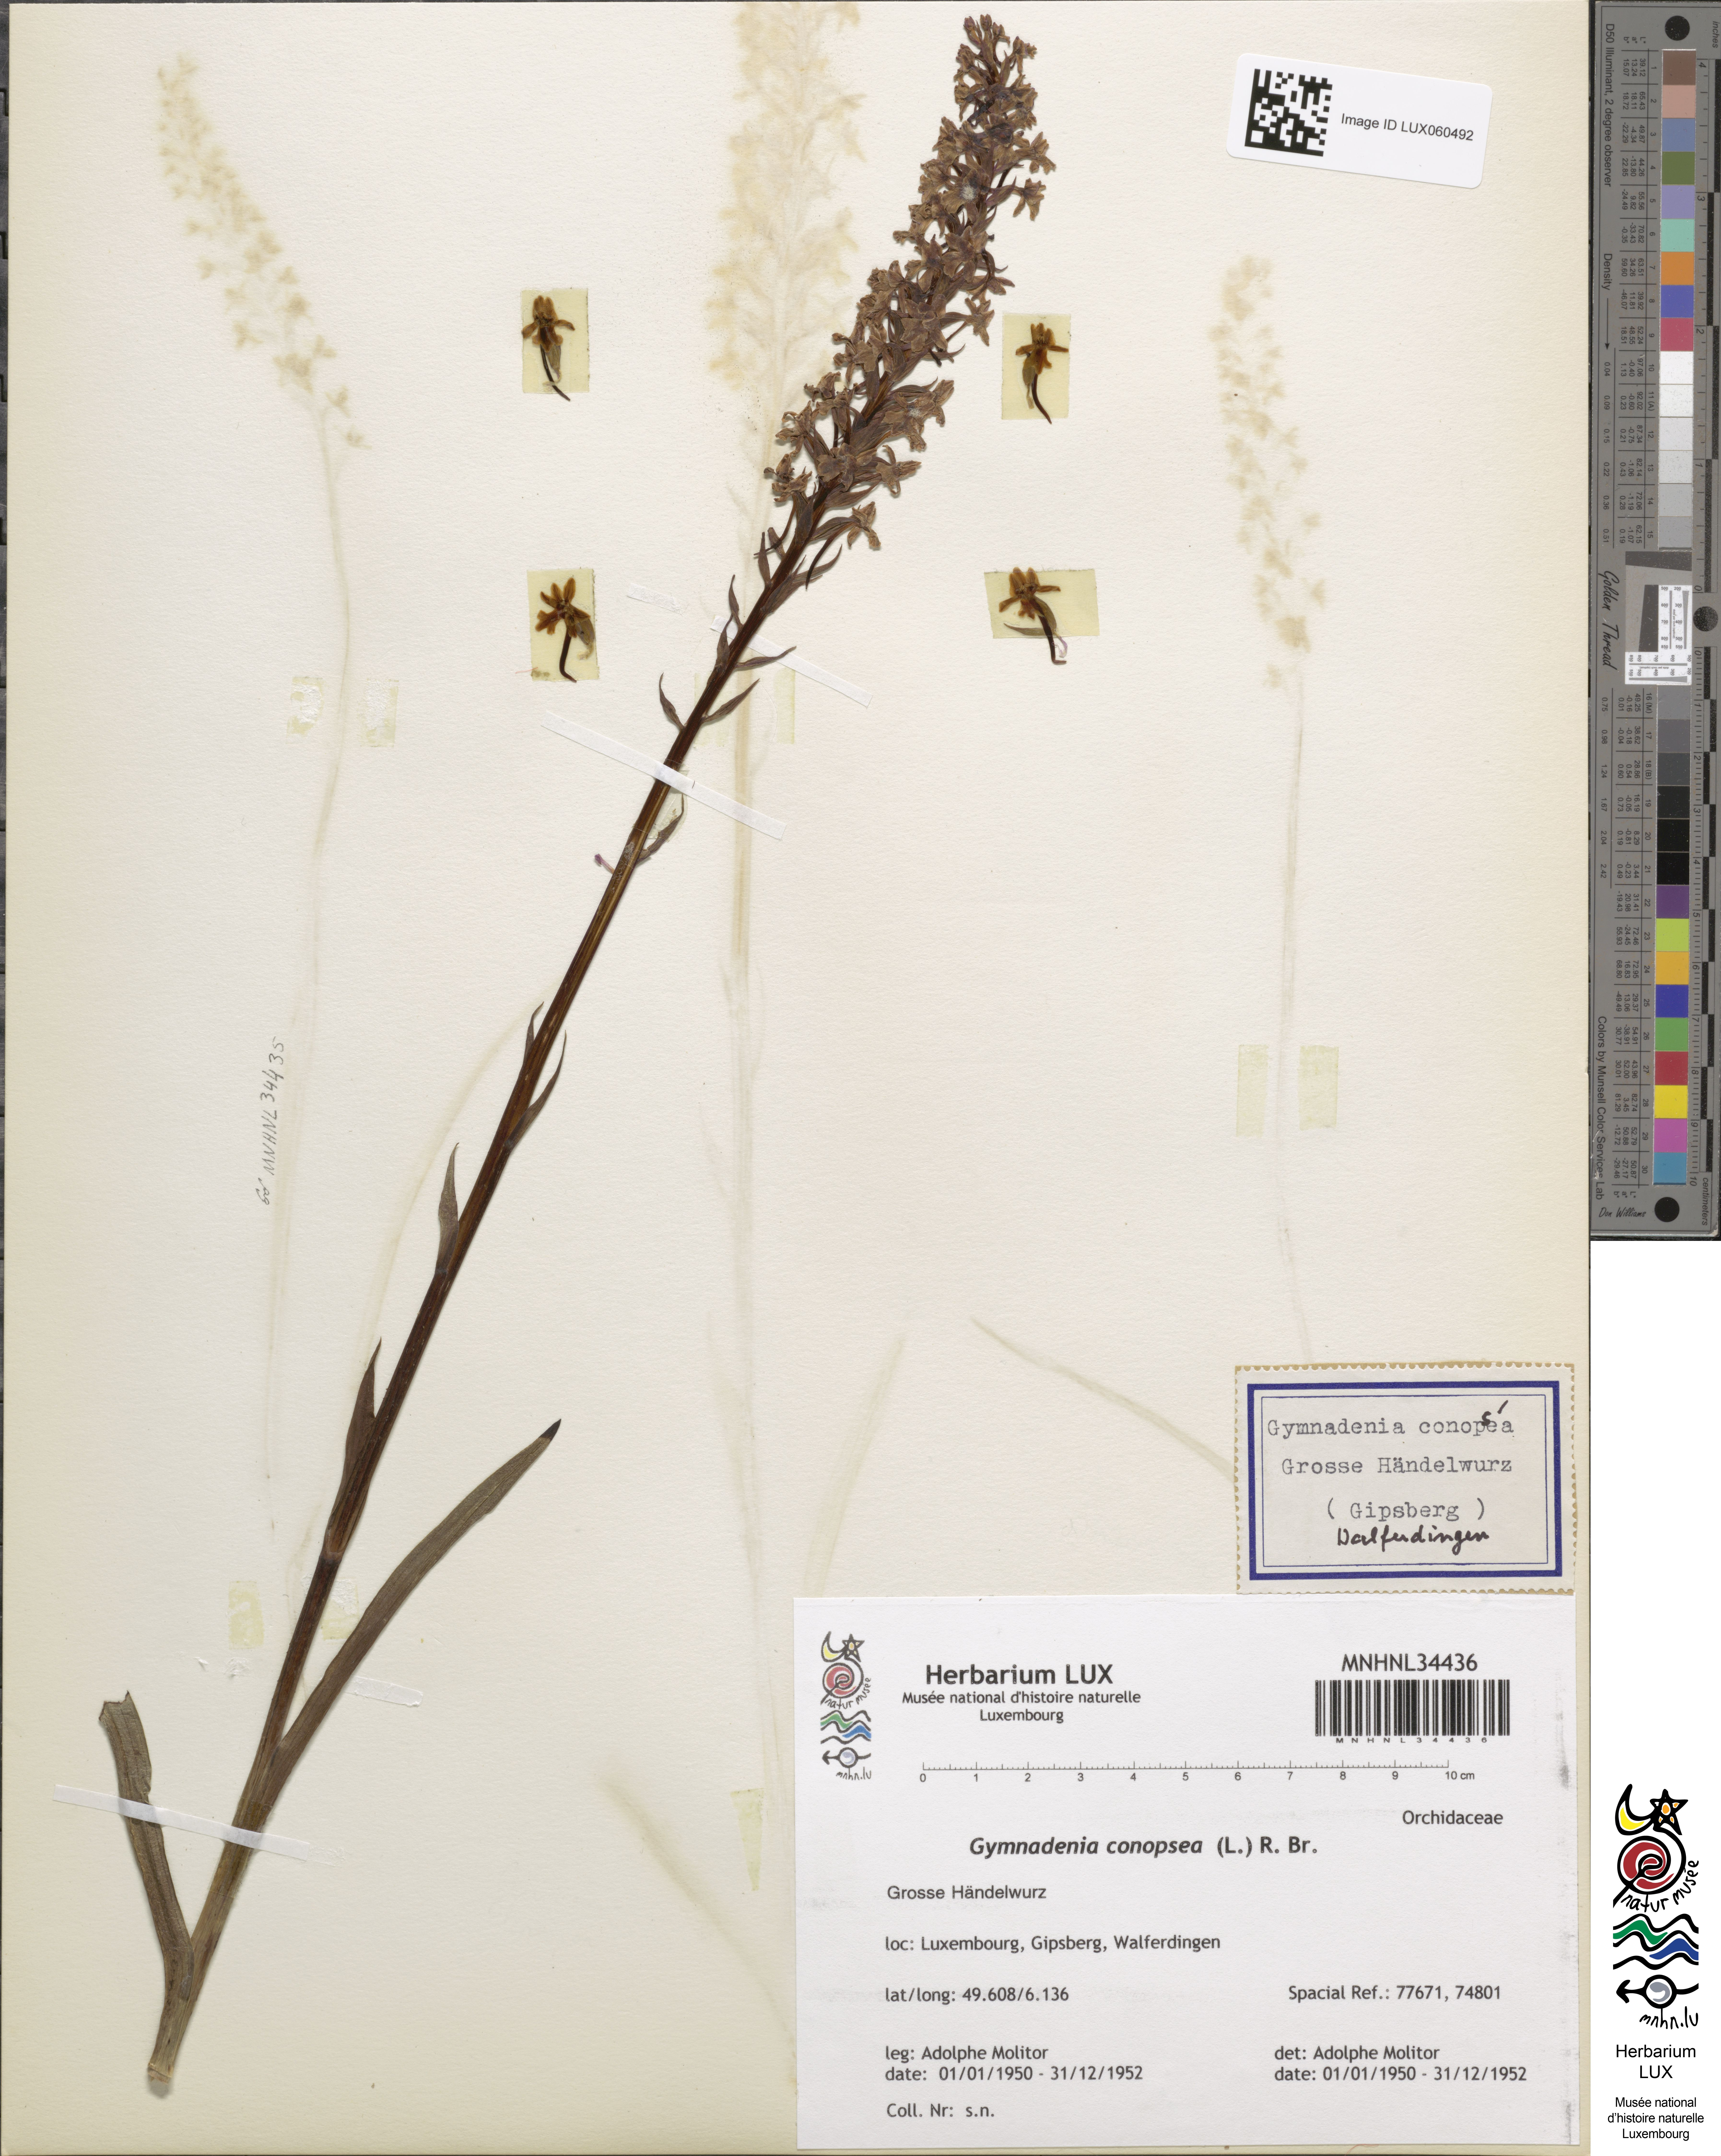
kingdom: Plantae
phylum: Tracheophyta
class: Liliopsida
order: Asparagales
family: Orchidaceae
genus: Gymnadenia
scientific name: Gymnadenia conopsea
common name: Fragrant orchid
